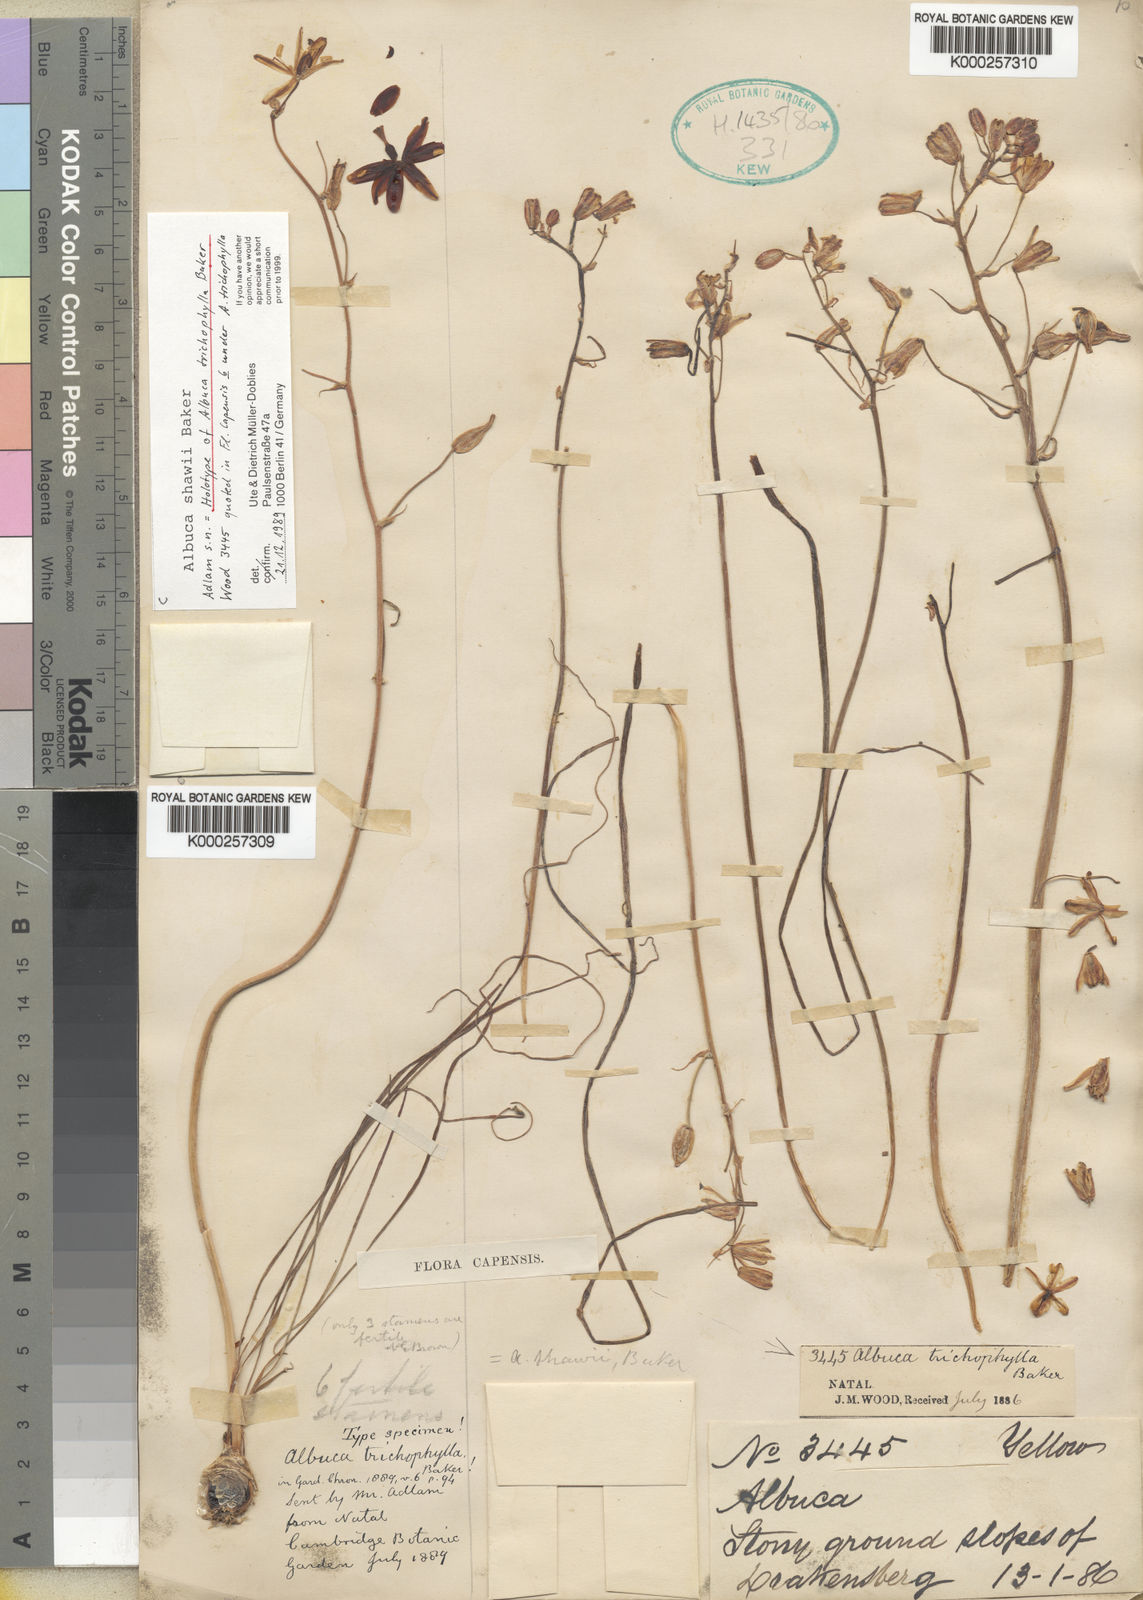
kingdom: Plantae
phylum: Tracheophyta
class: Liliopsida
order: Asparagales
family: Asparagaceae
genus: Albuca
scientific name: Albuca shawii
